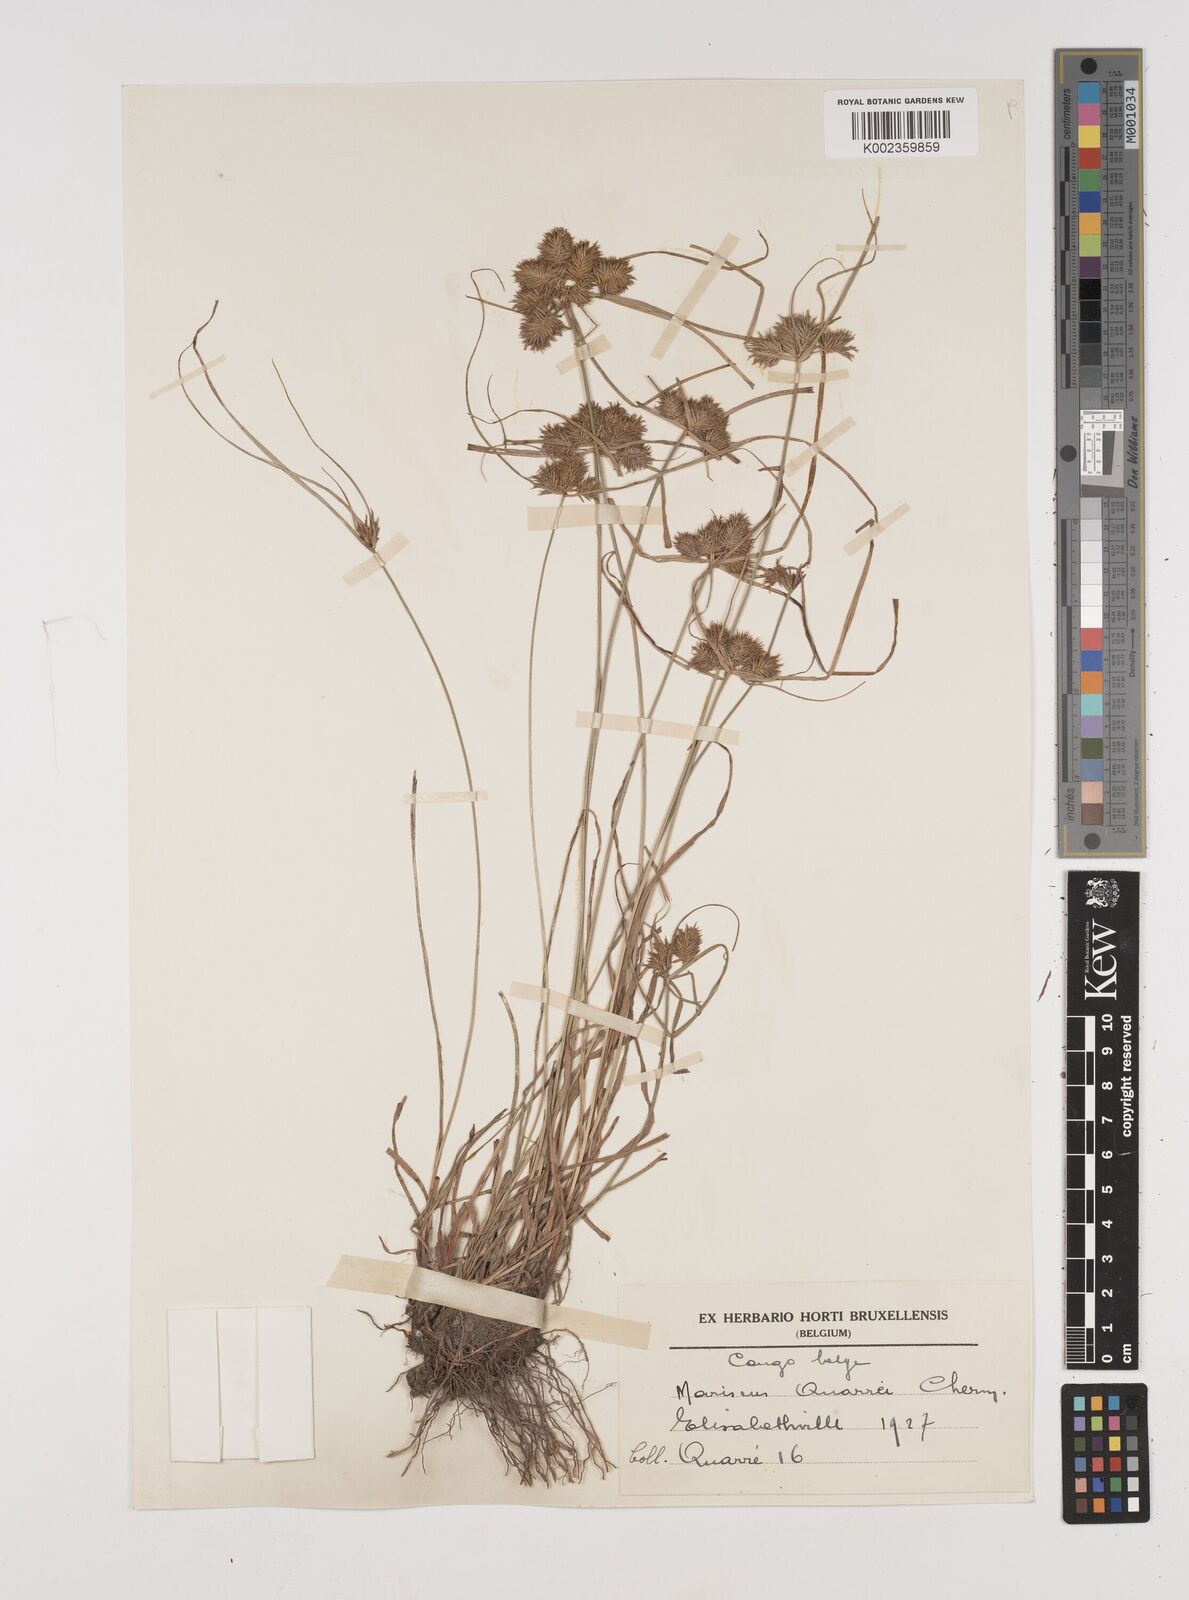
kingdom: Plantae
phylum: Tracheophyta
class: Liliopsida
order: Poales
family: Cyperaceae
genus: Cyperus
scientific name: Cyperus tenuis
